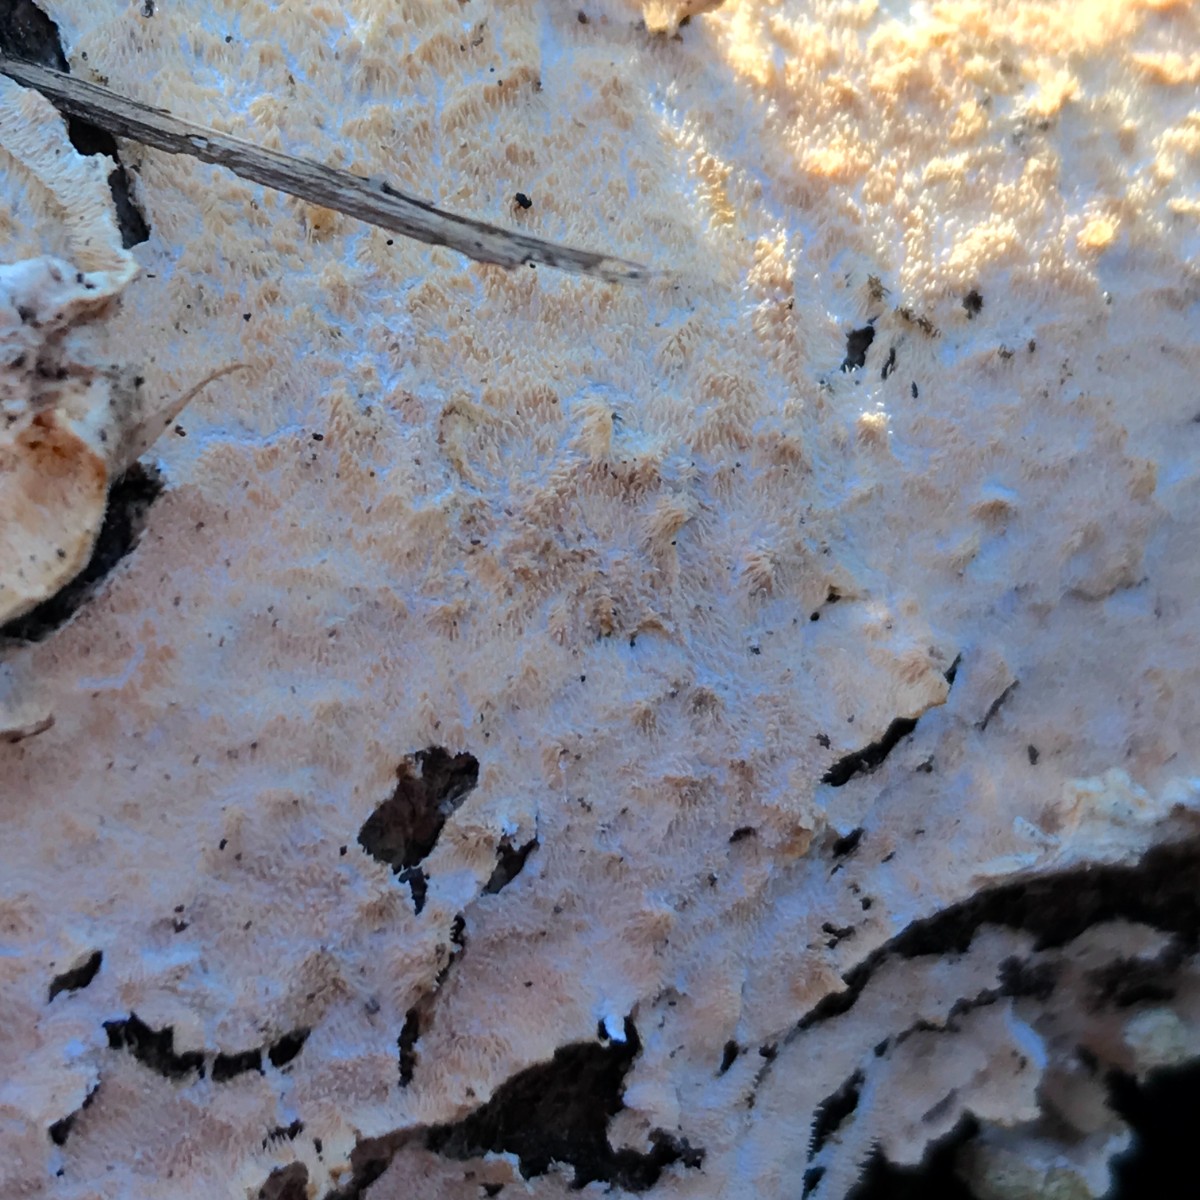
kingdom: Fungi
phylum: Basidiomycota
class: Agaricomycetes
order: Polyporales
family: Steccherinaceae
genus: Steccherinum
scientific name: Steccherinum
